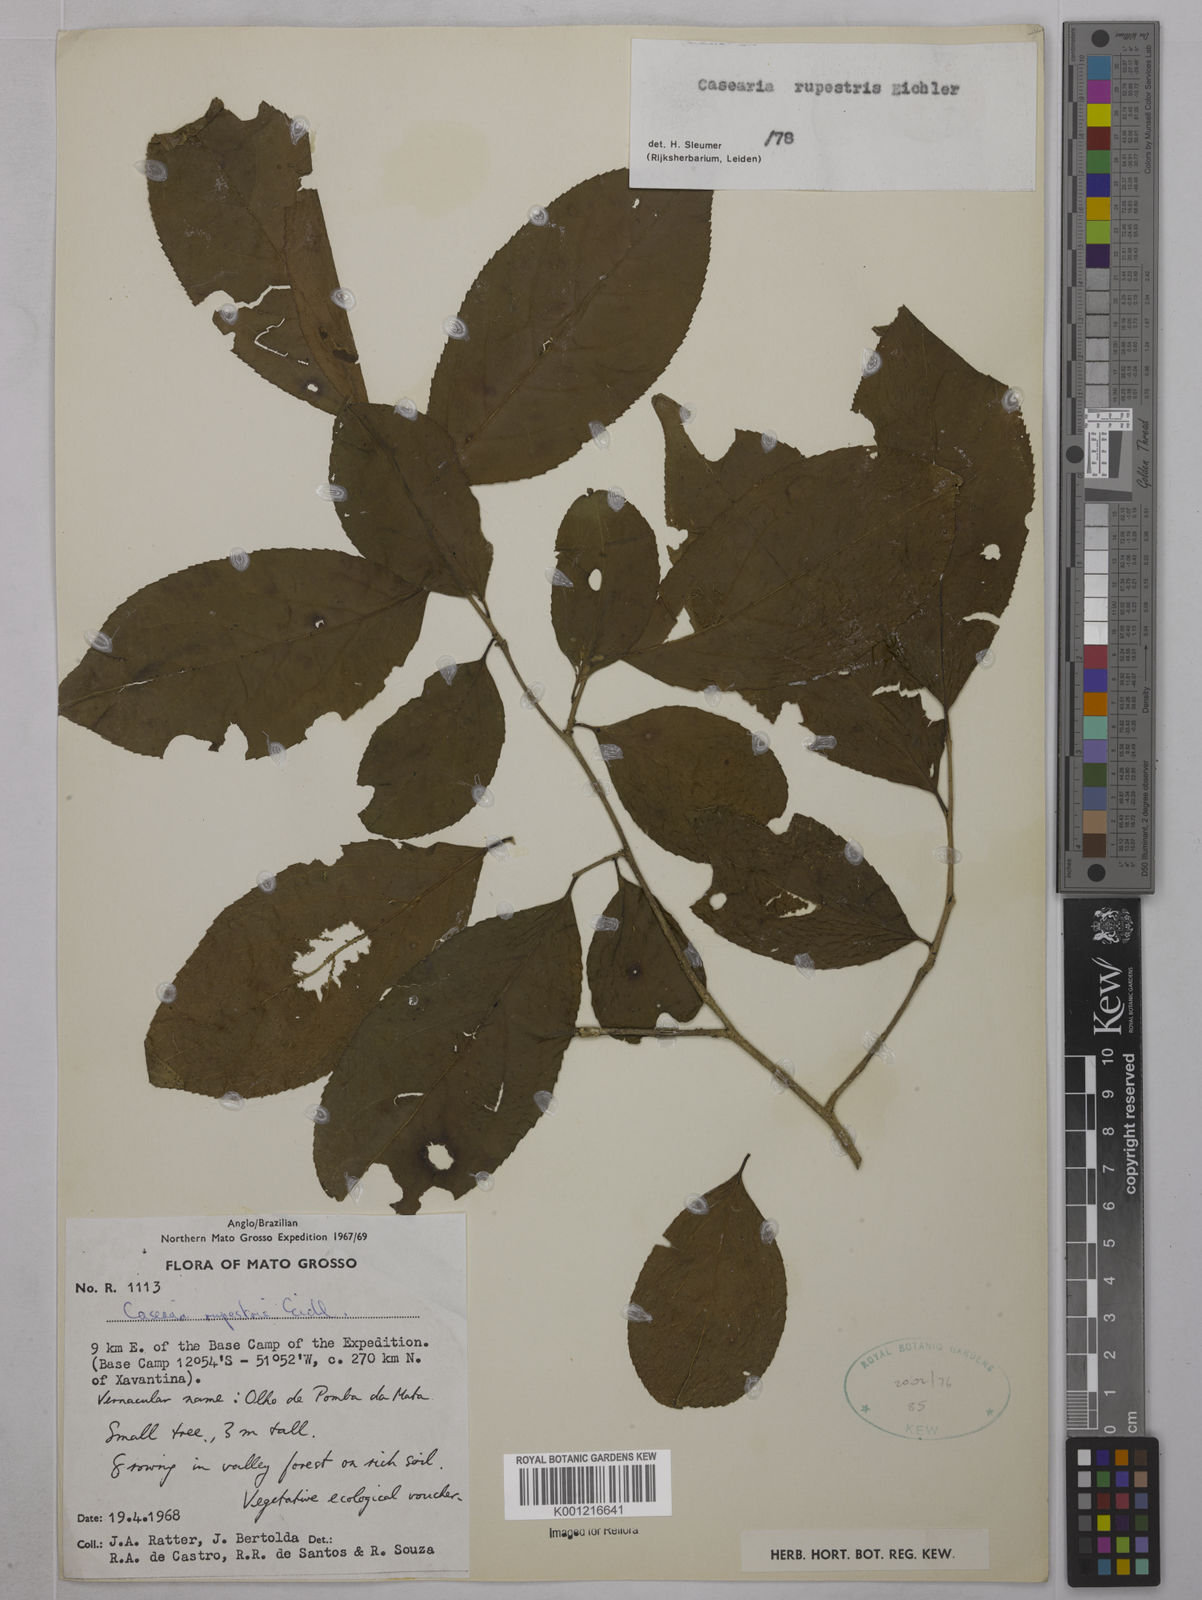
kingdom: Plantae
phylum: Tracheophyta
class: Magnoliopsida
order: Malpighiales
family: Salicaceae
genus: Casearia
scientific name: Casearia rupestris
